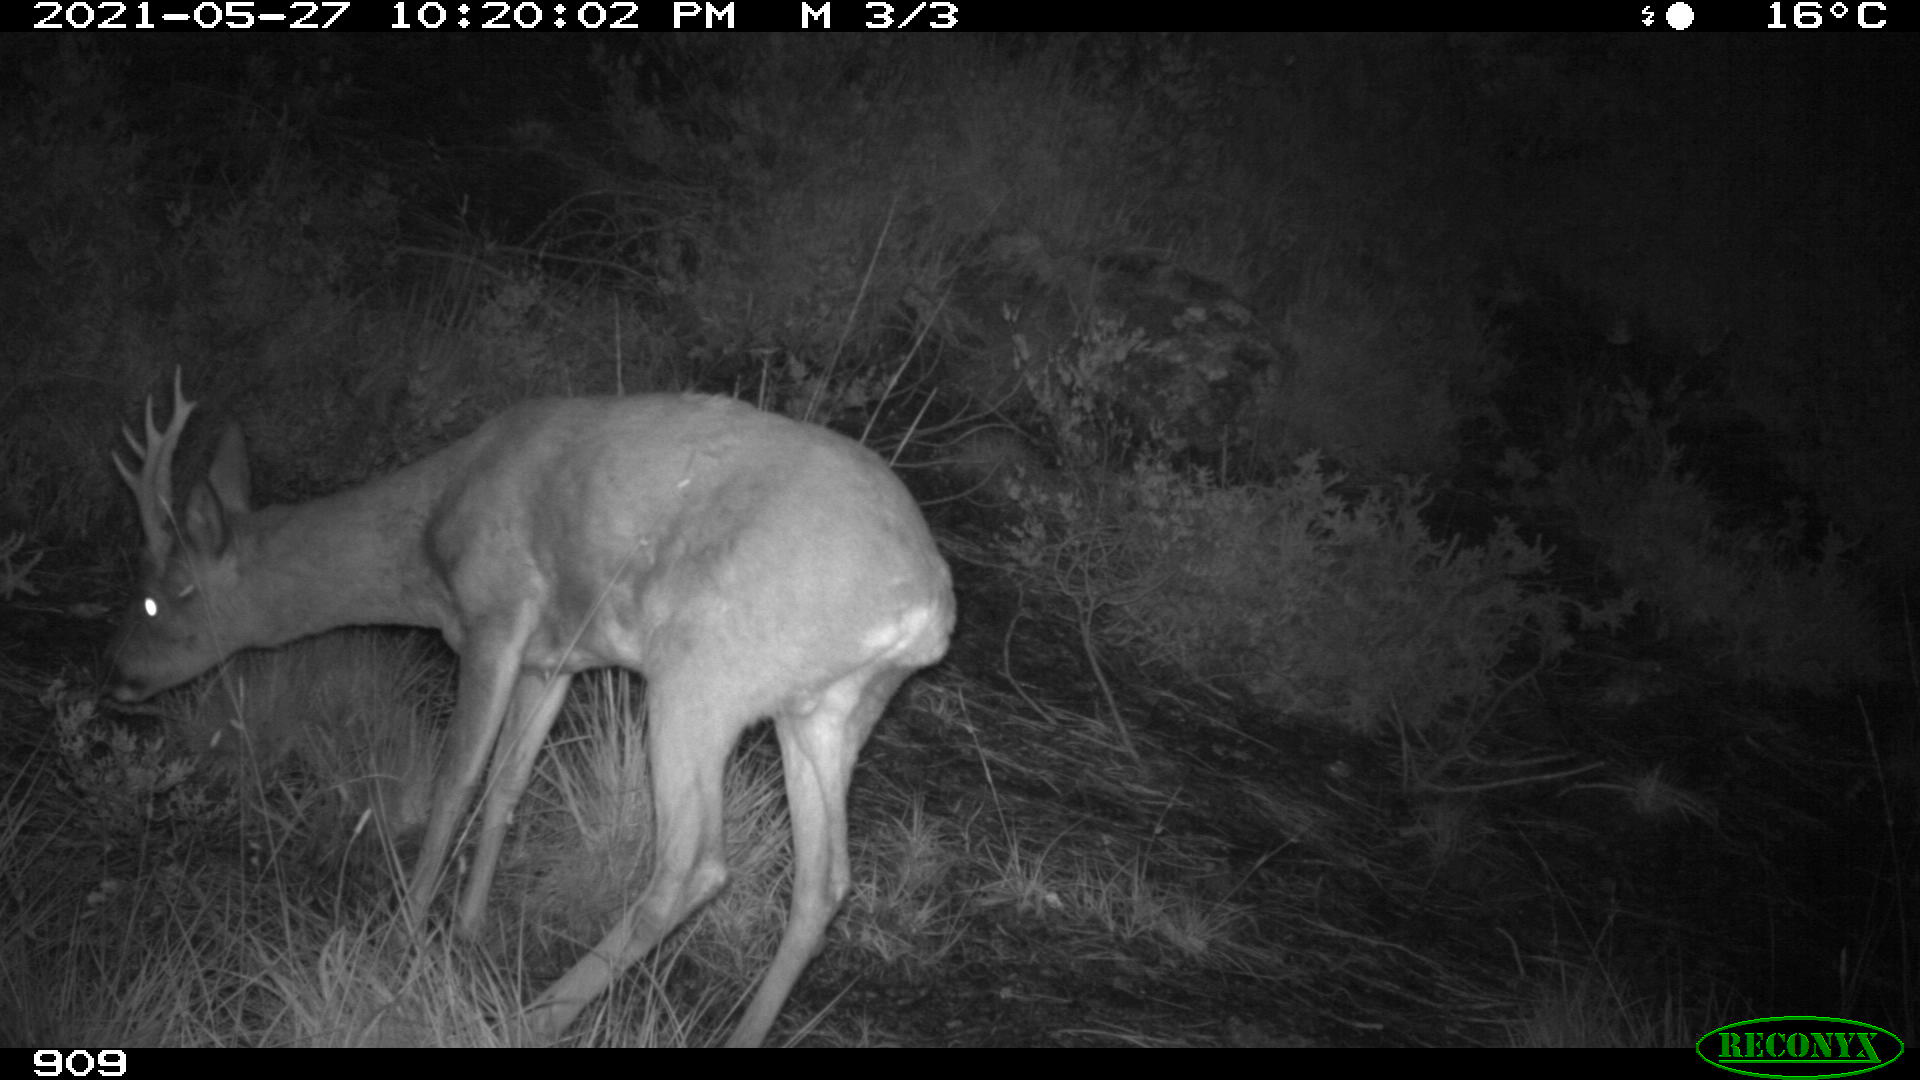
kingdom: Animalia
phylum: Chordata
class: Mammalia
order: Artiodactyla
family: Cervidae
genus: Capreolus
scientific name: Capreolus capreolus
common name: Western roe deer
